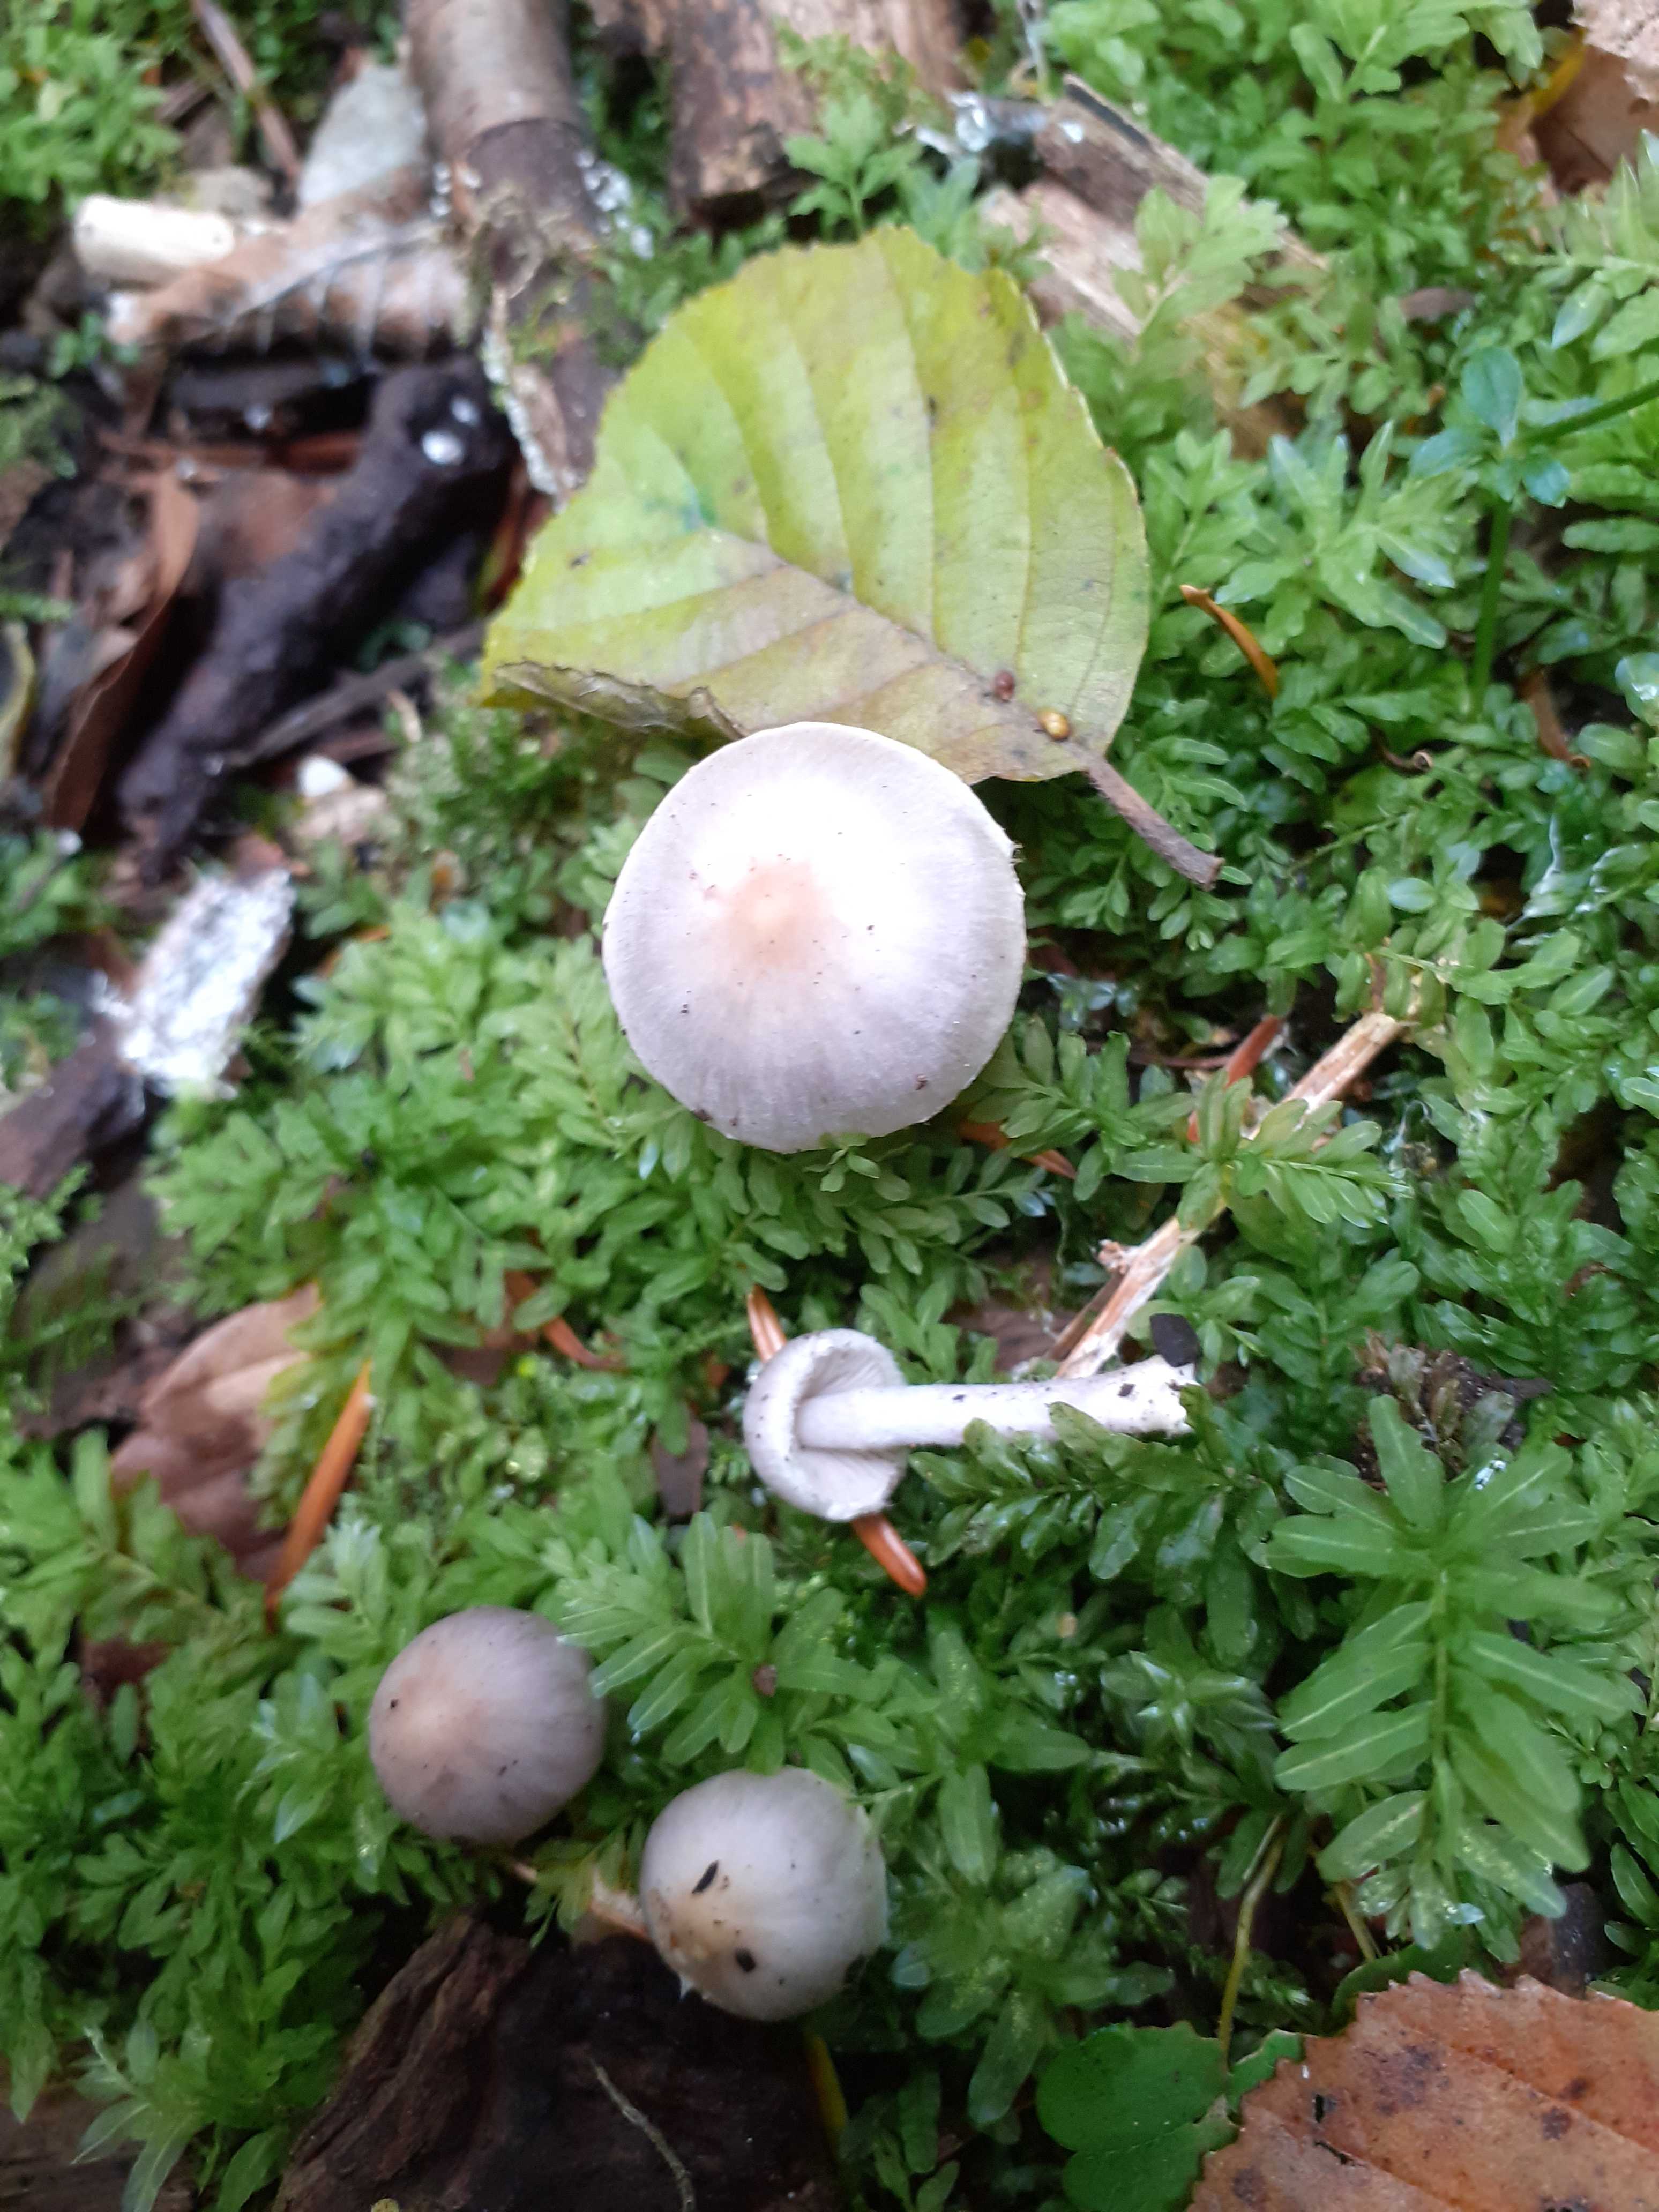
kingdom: Fungi
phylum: Basidiomycota
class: Agaricomycetes
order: Agaricales
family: Inocybaceae
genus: Inocybe
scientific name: Inocybe geophylla
